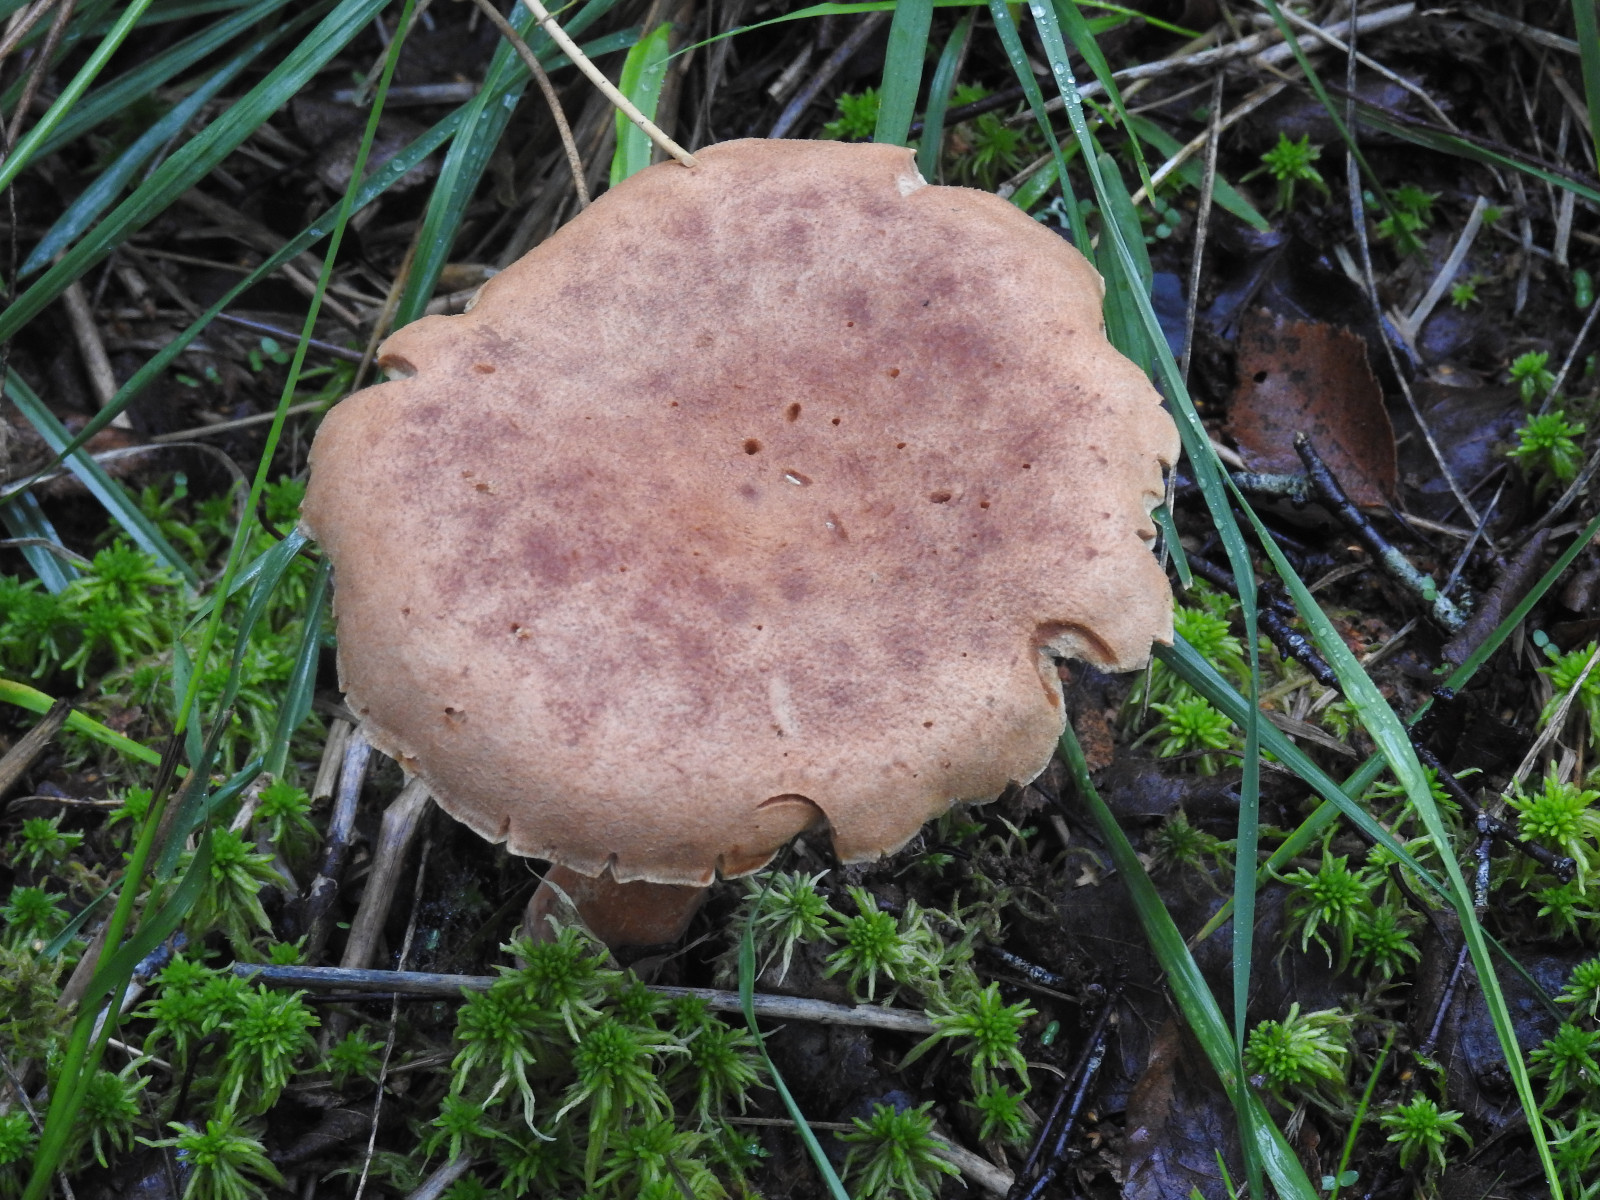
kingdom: Fungi
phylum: Basidiomycota
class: Agaricomycetes
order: Russulales
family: Russulaceae
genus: Lactarius
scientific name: Lactarius helvus
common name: mose-mælkehat
